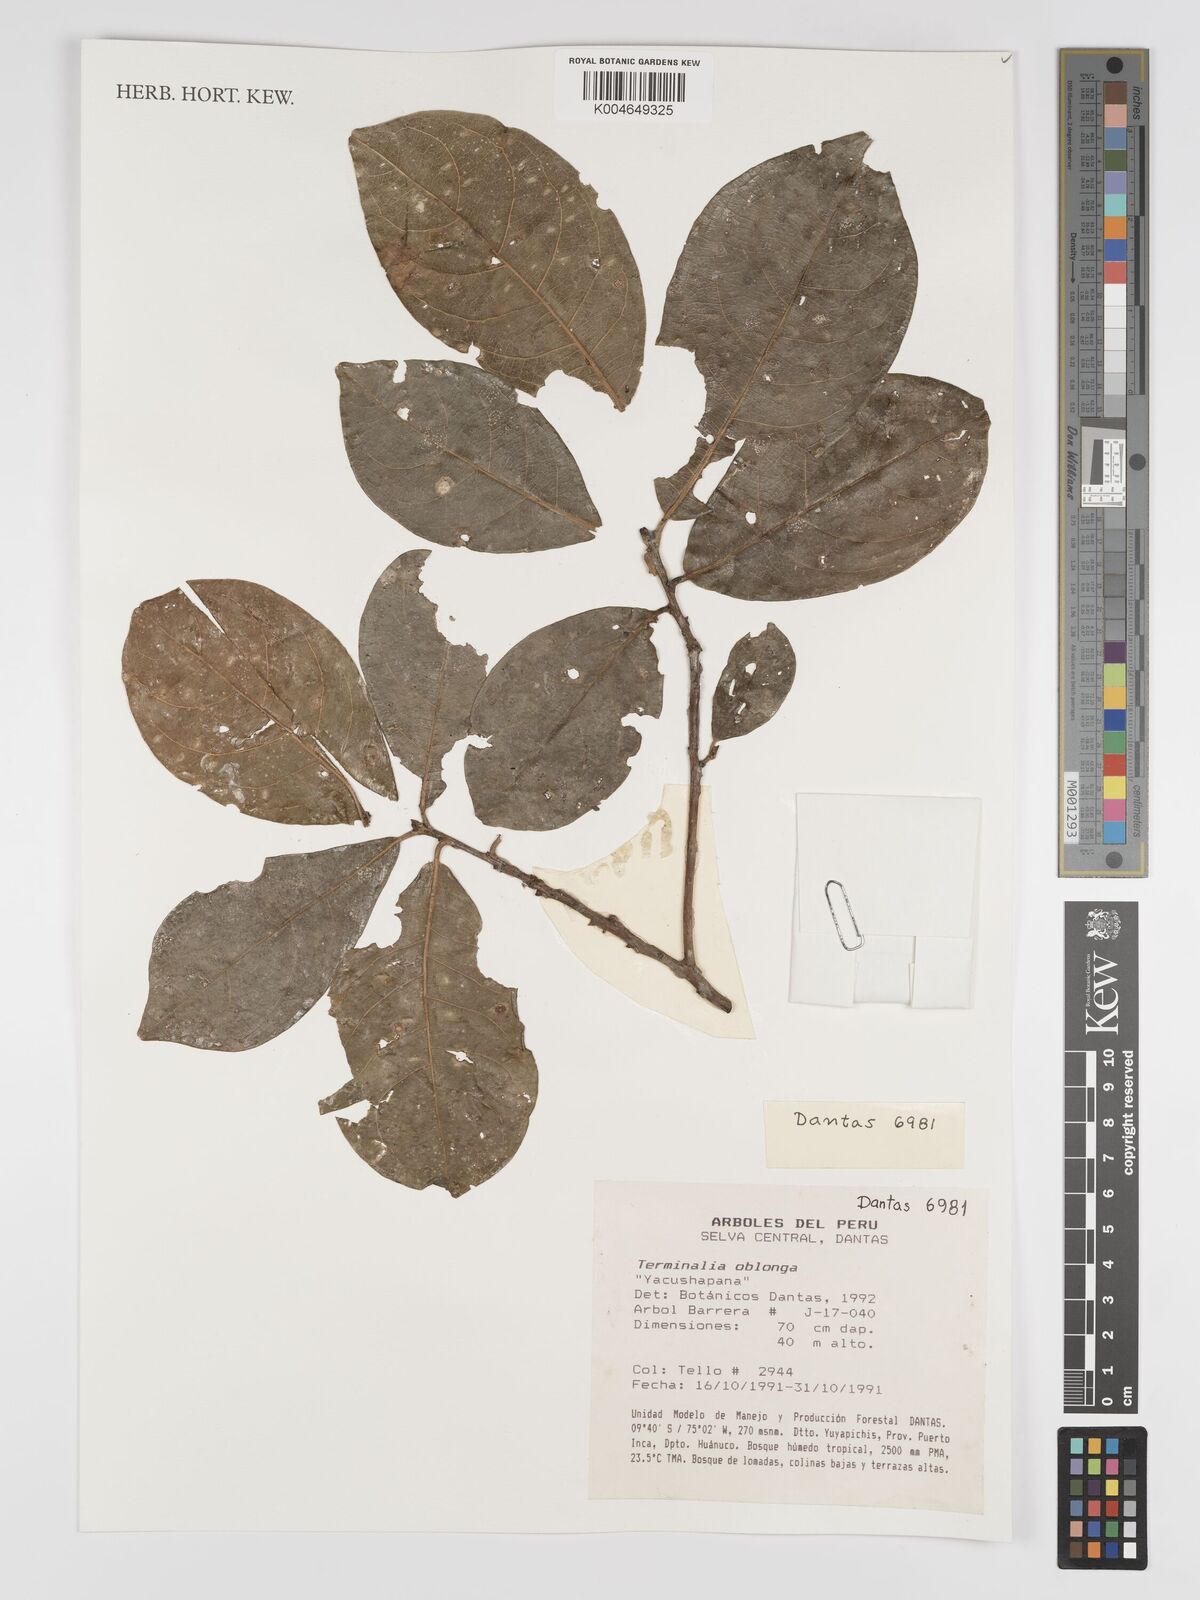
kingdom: Plantae
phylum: Tracheophyta
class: Magnoliopsida
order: Myrtales
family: Combretaceae
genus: Terminalia
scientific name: Terminalia oblonga
